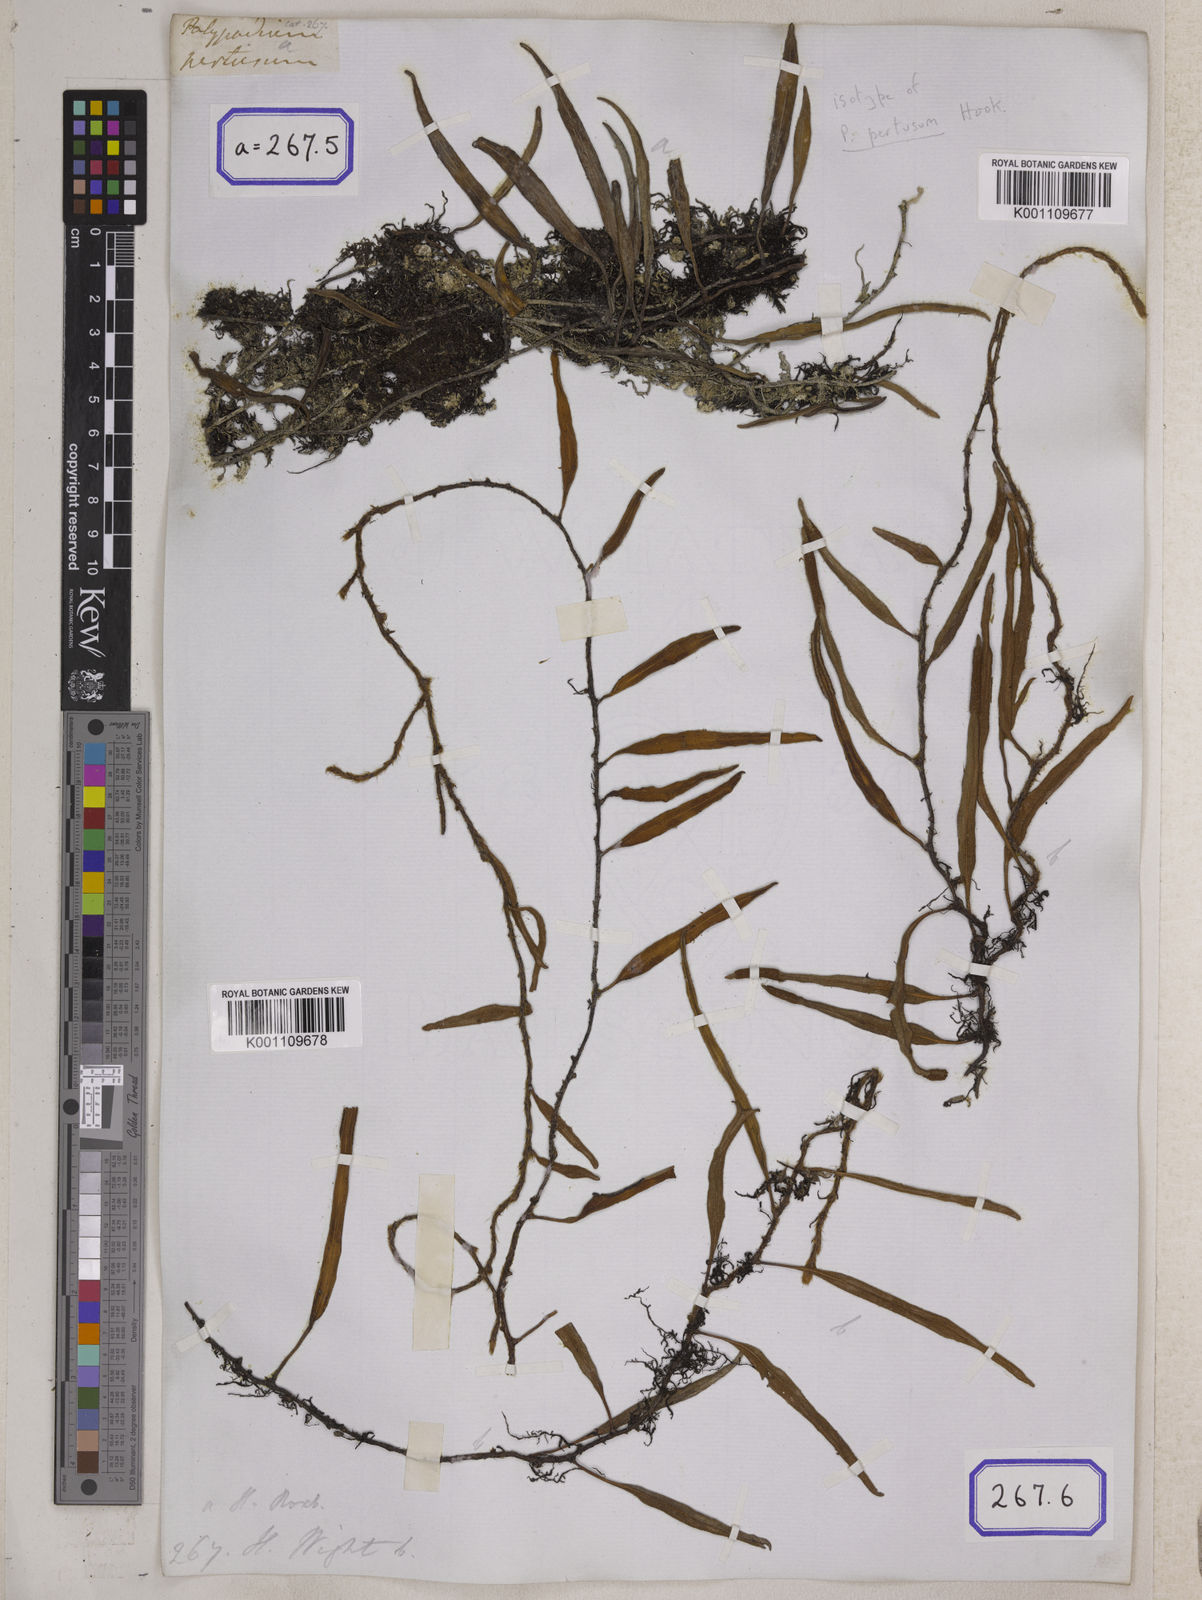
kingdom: Plantae
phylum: Tracheophyta
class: Polypodiopsida
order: Polypodiales
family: Polypodiaceae
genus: Polypodium
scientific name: Polypodium
